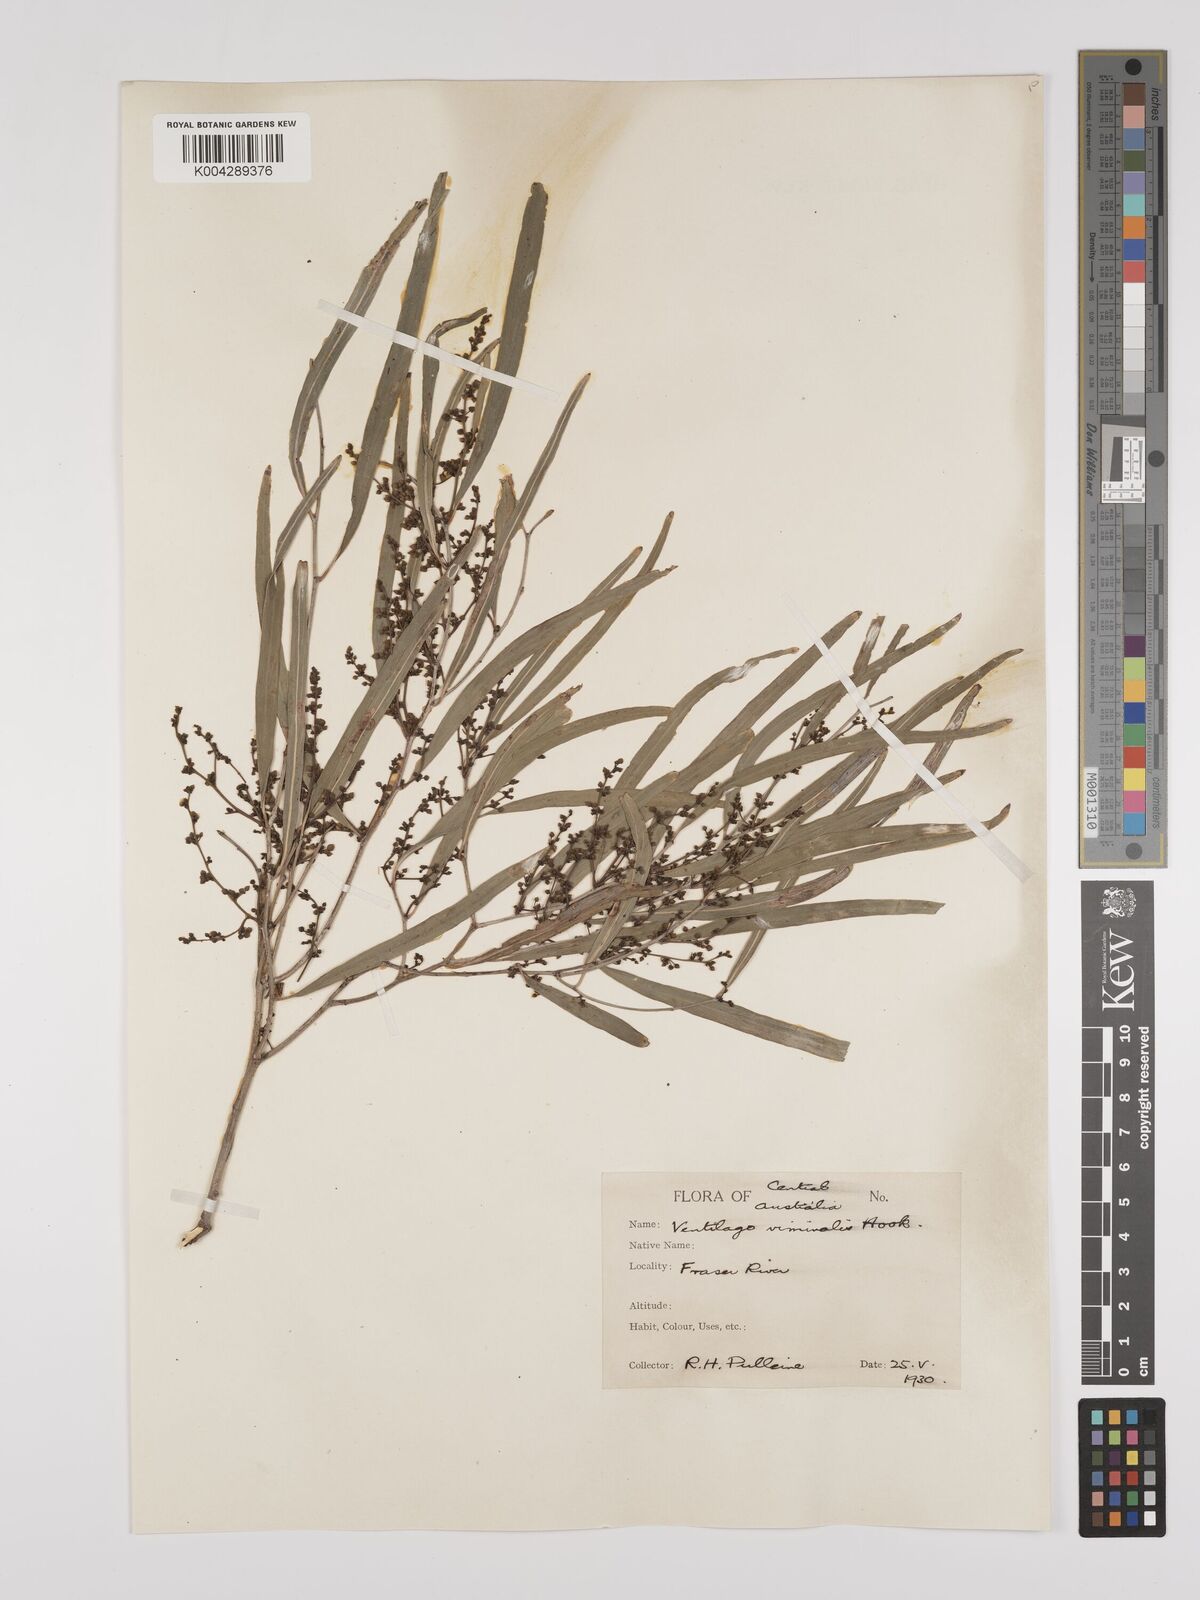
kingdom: Plantae
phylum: Tracheophyta
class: Magnoliopsida
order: Rosales
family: Rhamnaceae
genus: Ventilago
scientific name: Ventilago viminalis
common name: Medicine-bark
